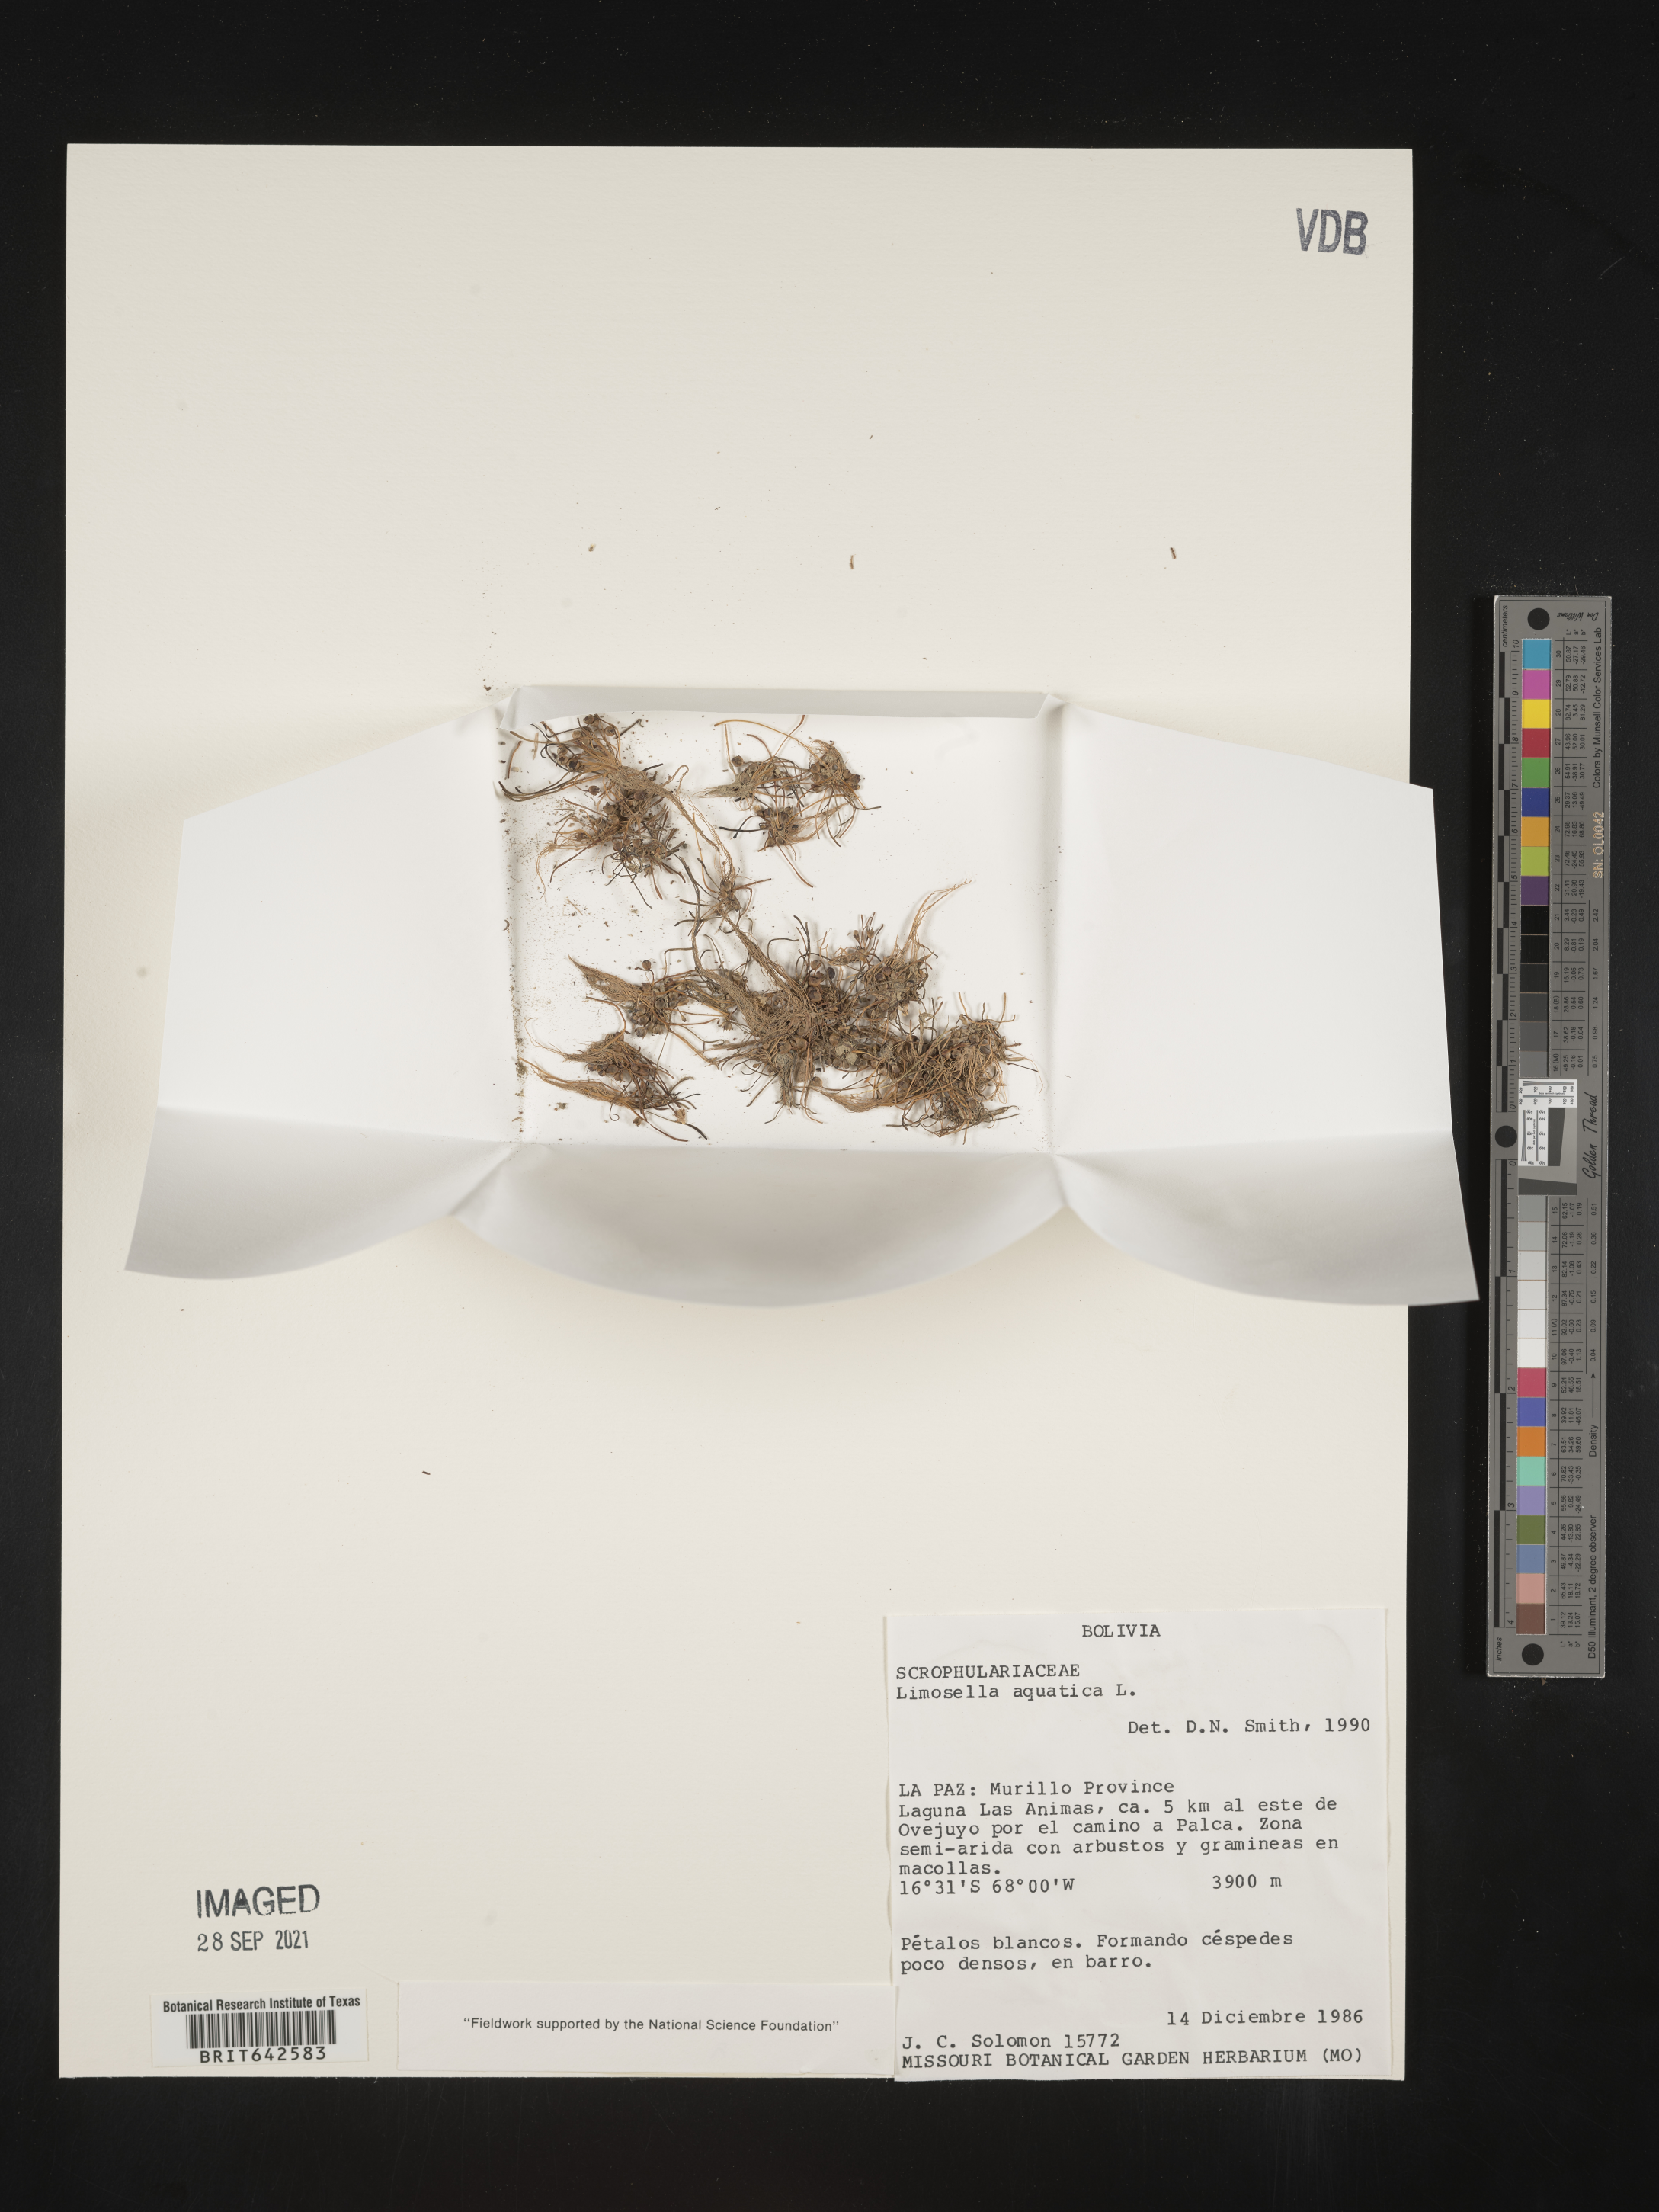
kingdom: Plantae
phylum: Tracheophyta
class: Magnoliopsida
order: Lamiales
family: Scrophulariaceae
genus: Limosella
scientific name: Limosella
